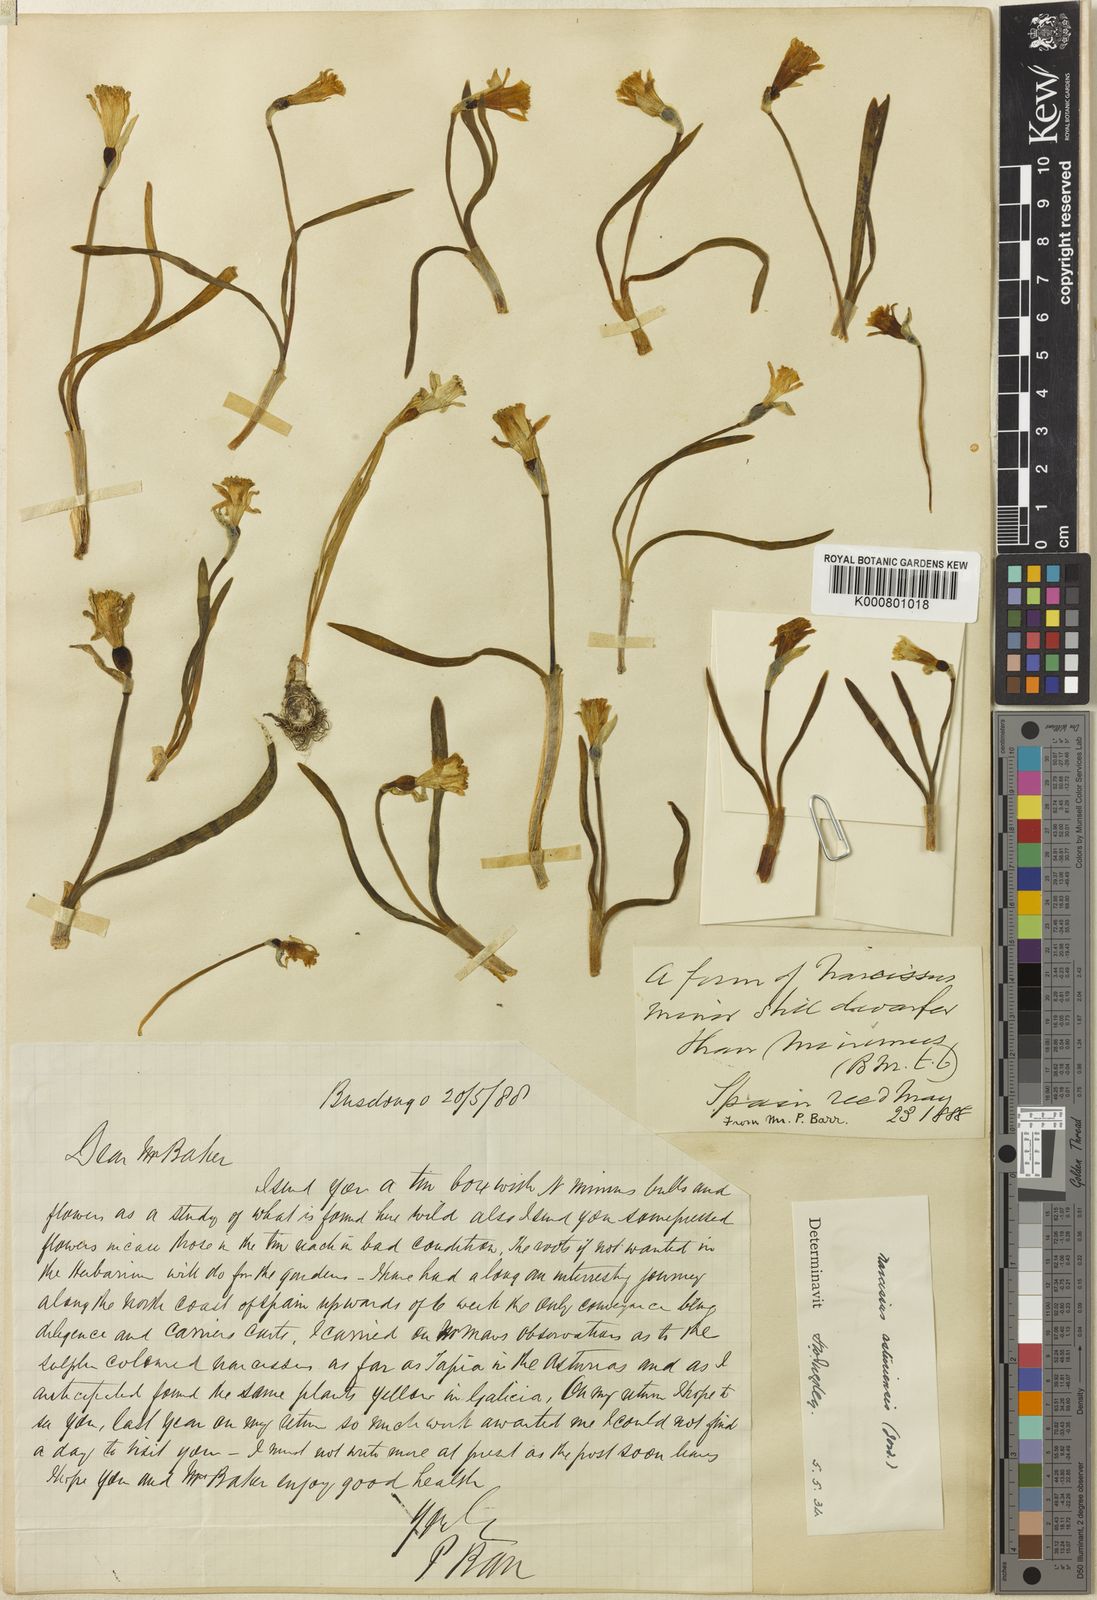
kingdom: Plantae
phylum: Tracheophyta
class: Liliopsida
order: Asparagales
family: Amaryllidaceae
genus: Narcissus
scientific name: Narcissus cuneiflorus
